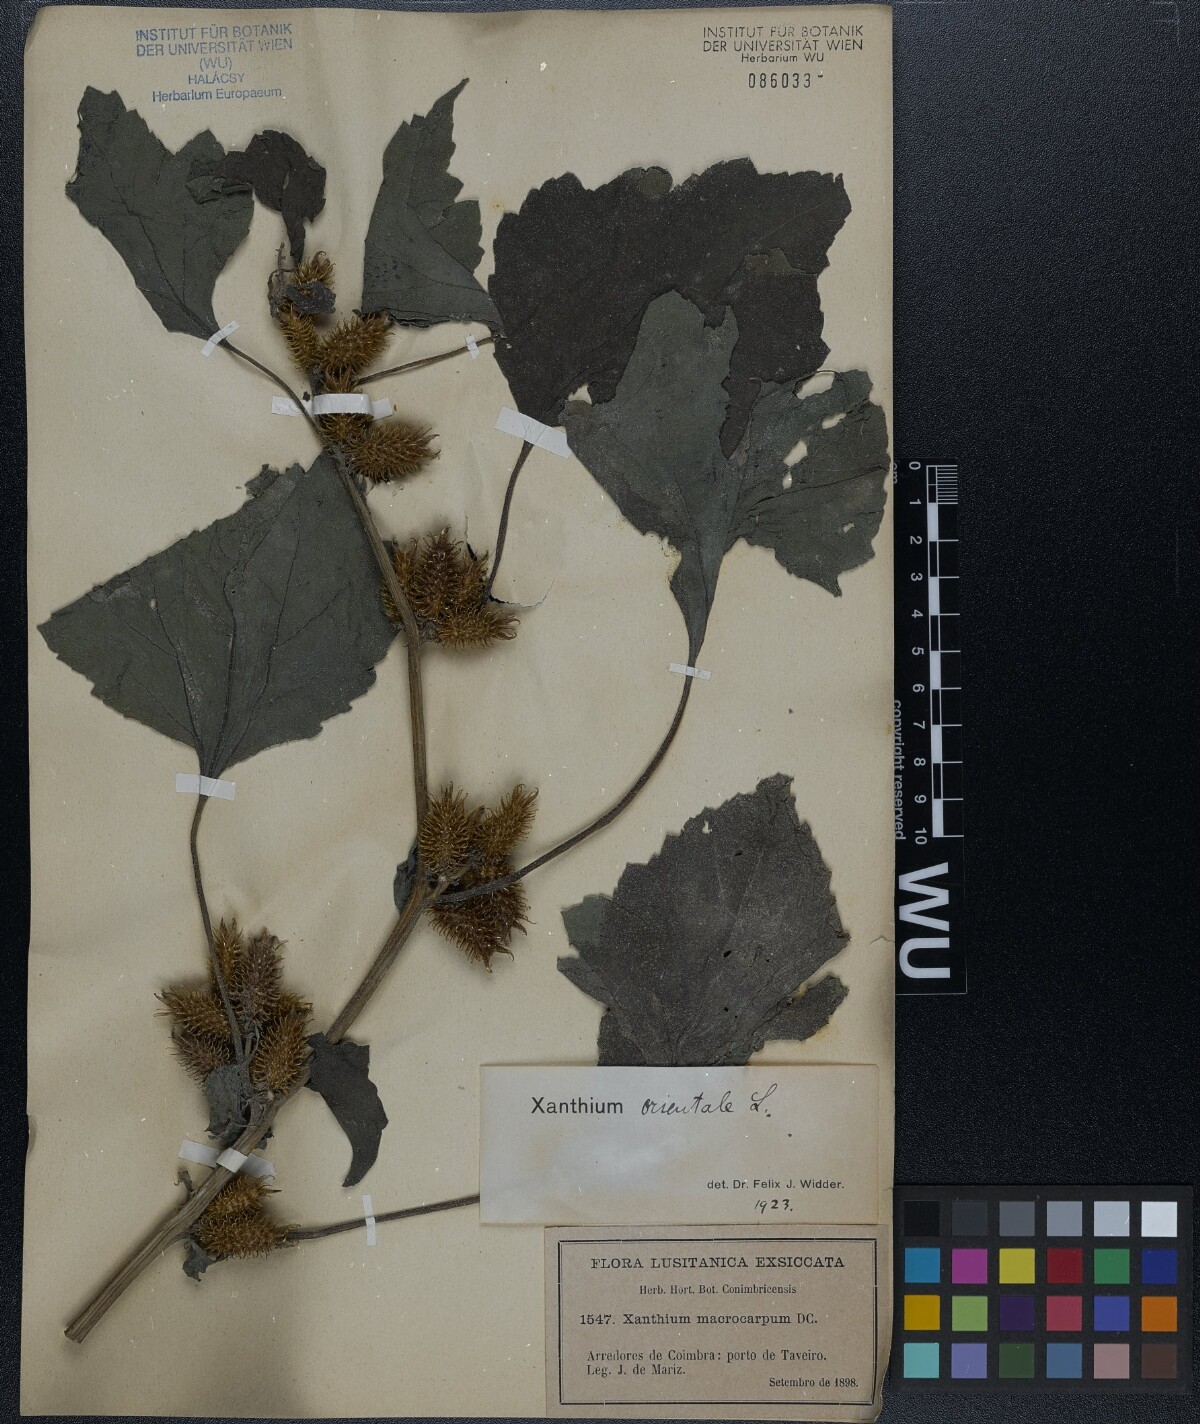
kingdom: Plantae
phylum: Tracheophyta
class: Magnoliopsida
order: Asterales
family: Asteraceae
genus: Xanthium
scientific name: Xanthium orientale
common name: Californian burr
